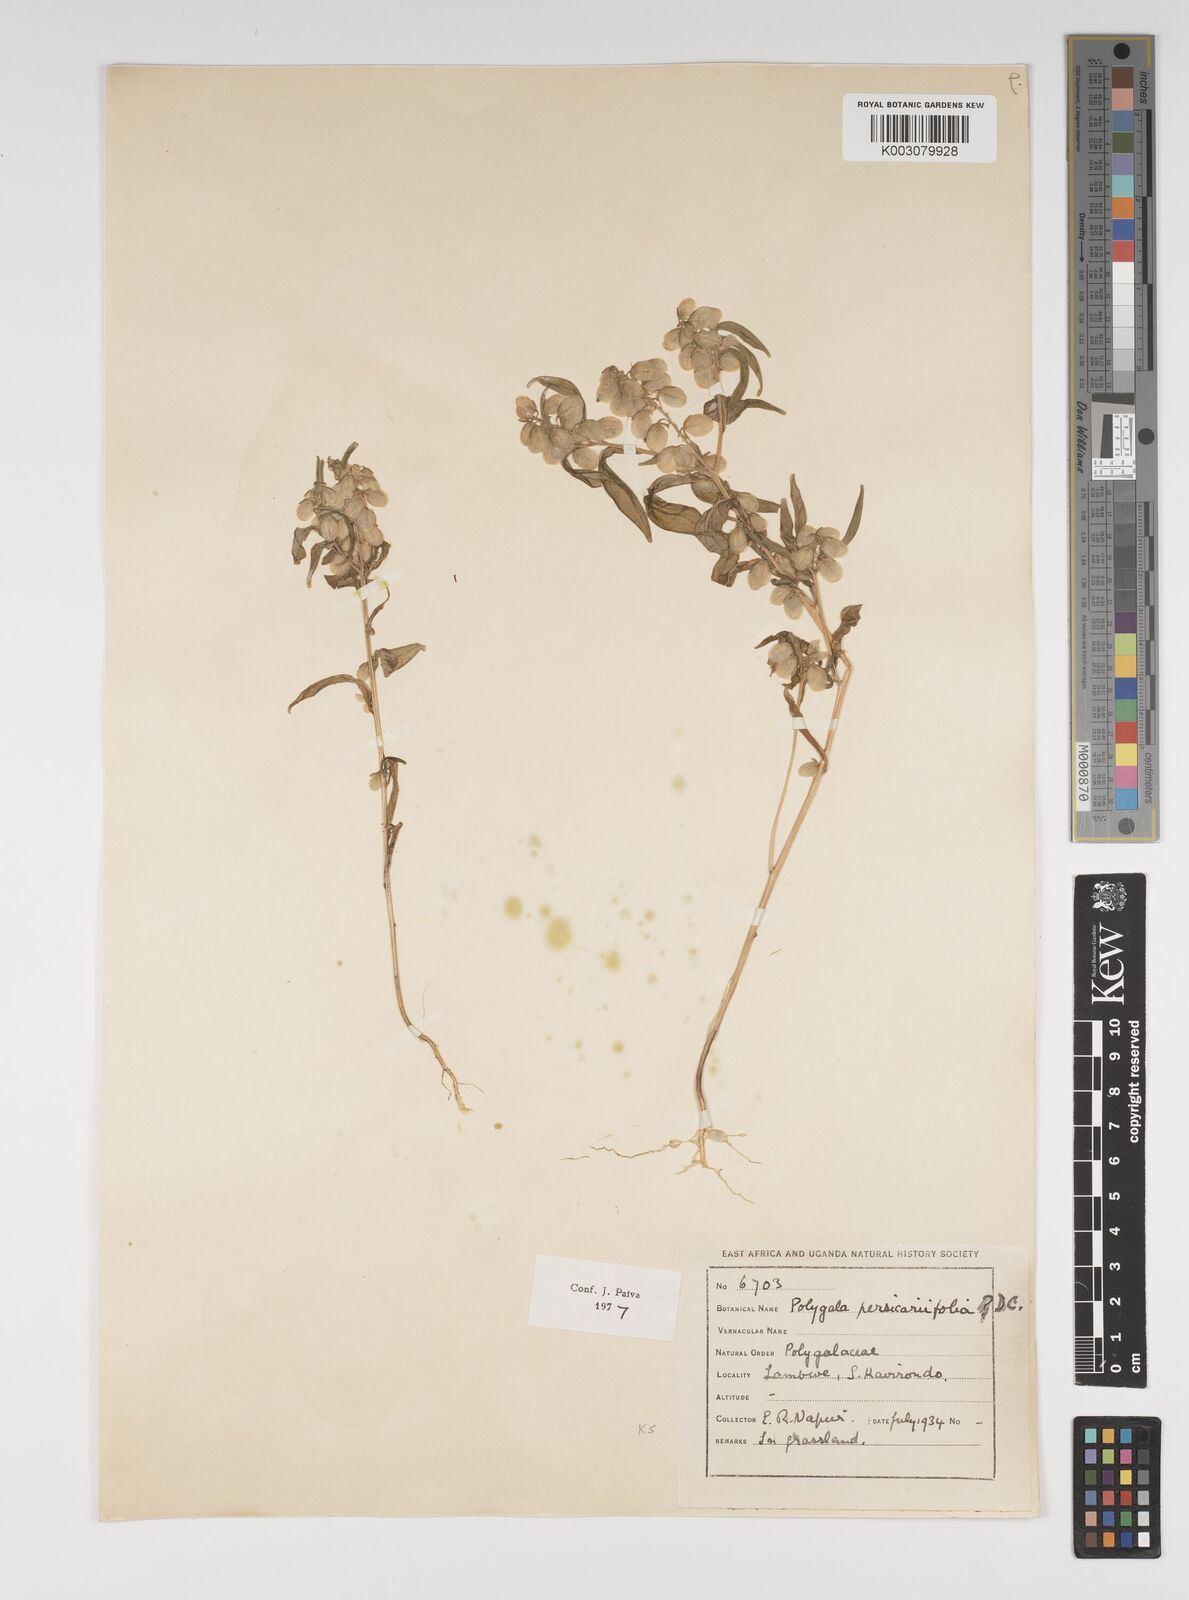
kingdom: Plantae
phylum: Tracheophyta
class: Magnoliopsida
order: Fabales
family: Polygalaceae
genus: Polygala
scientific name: Polygala persicariifolia
